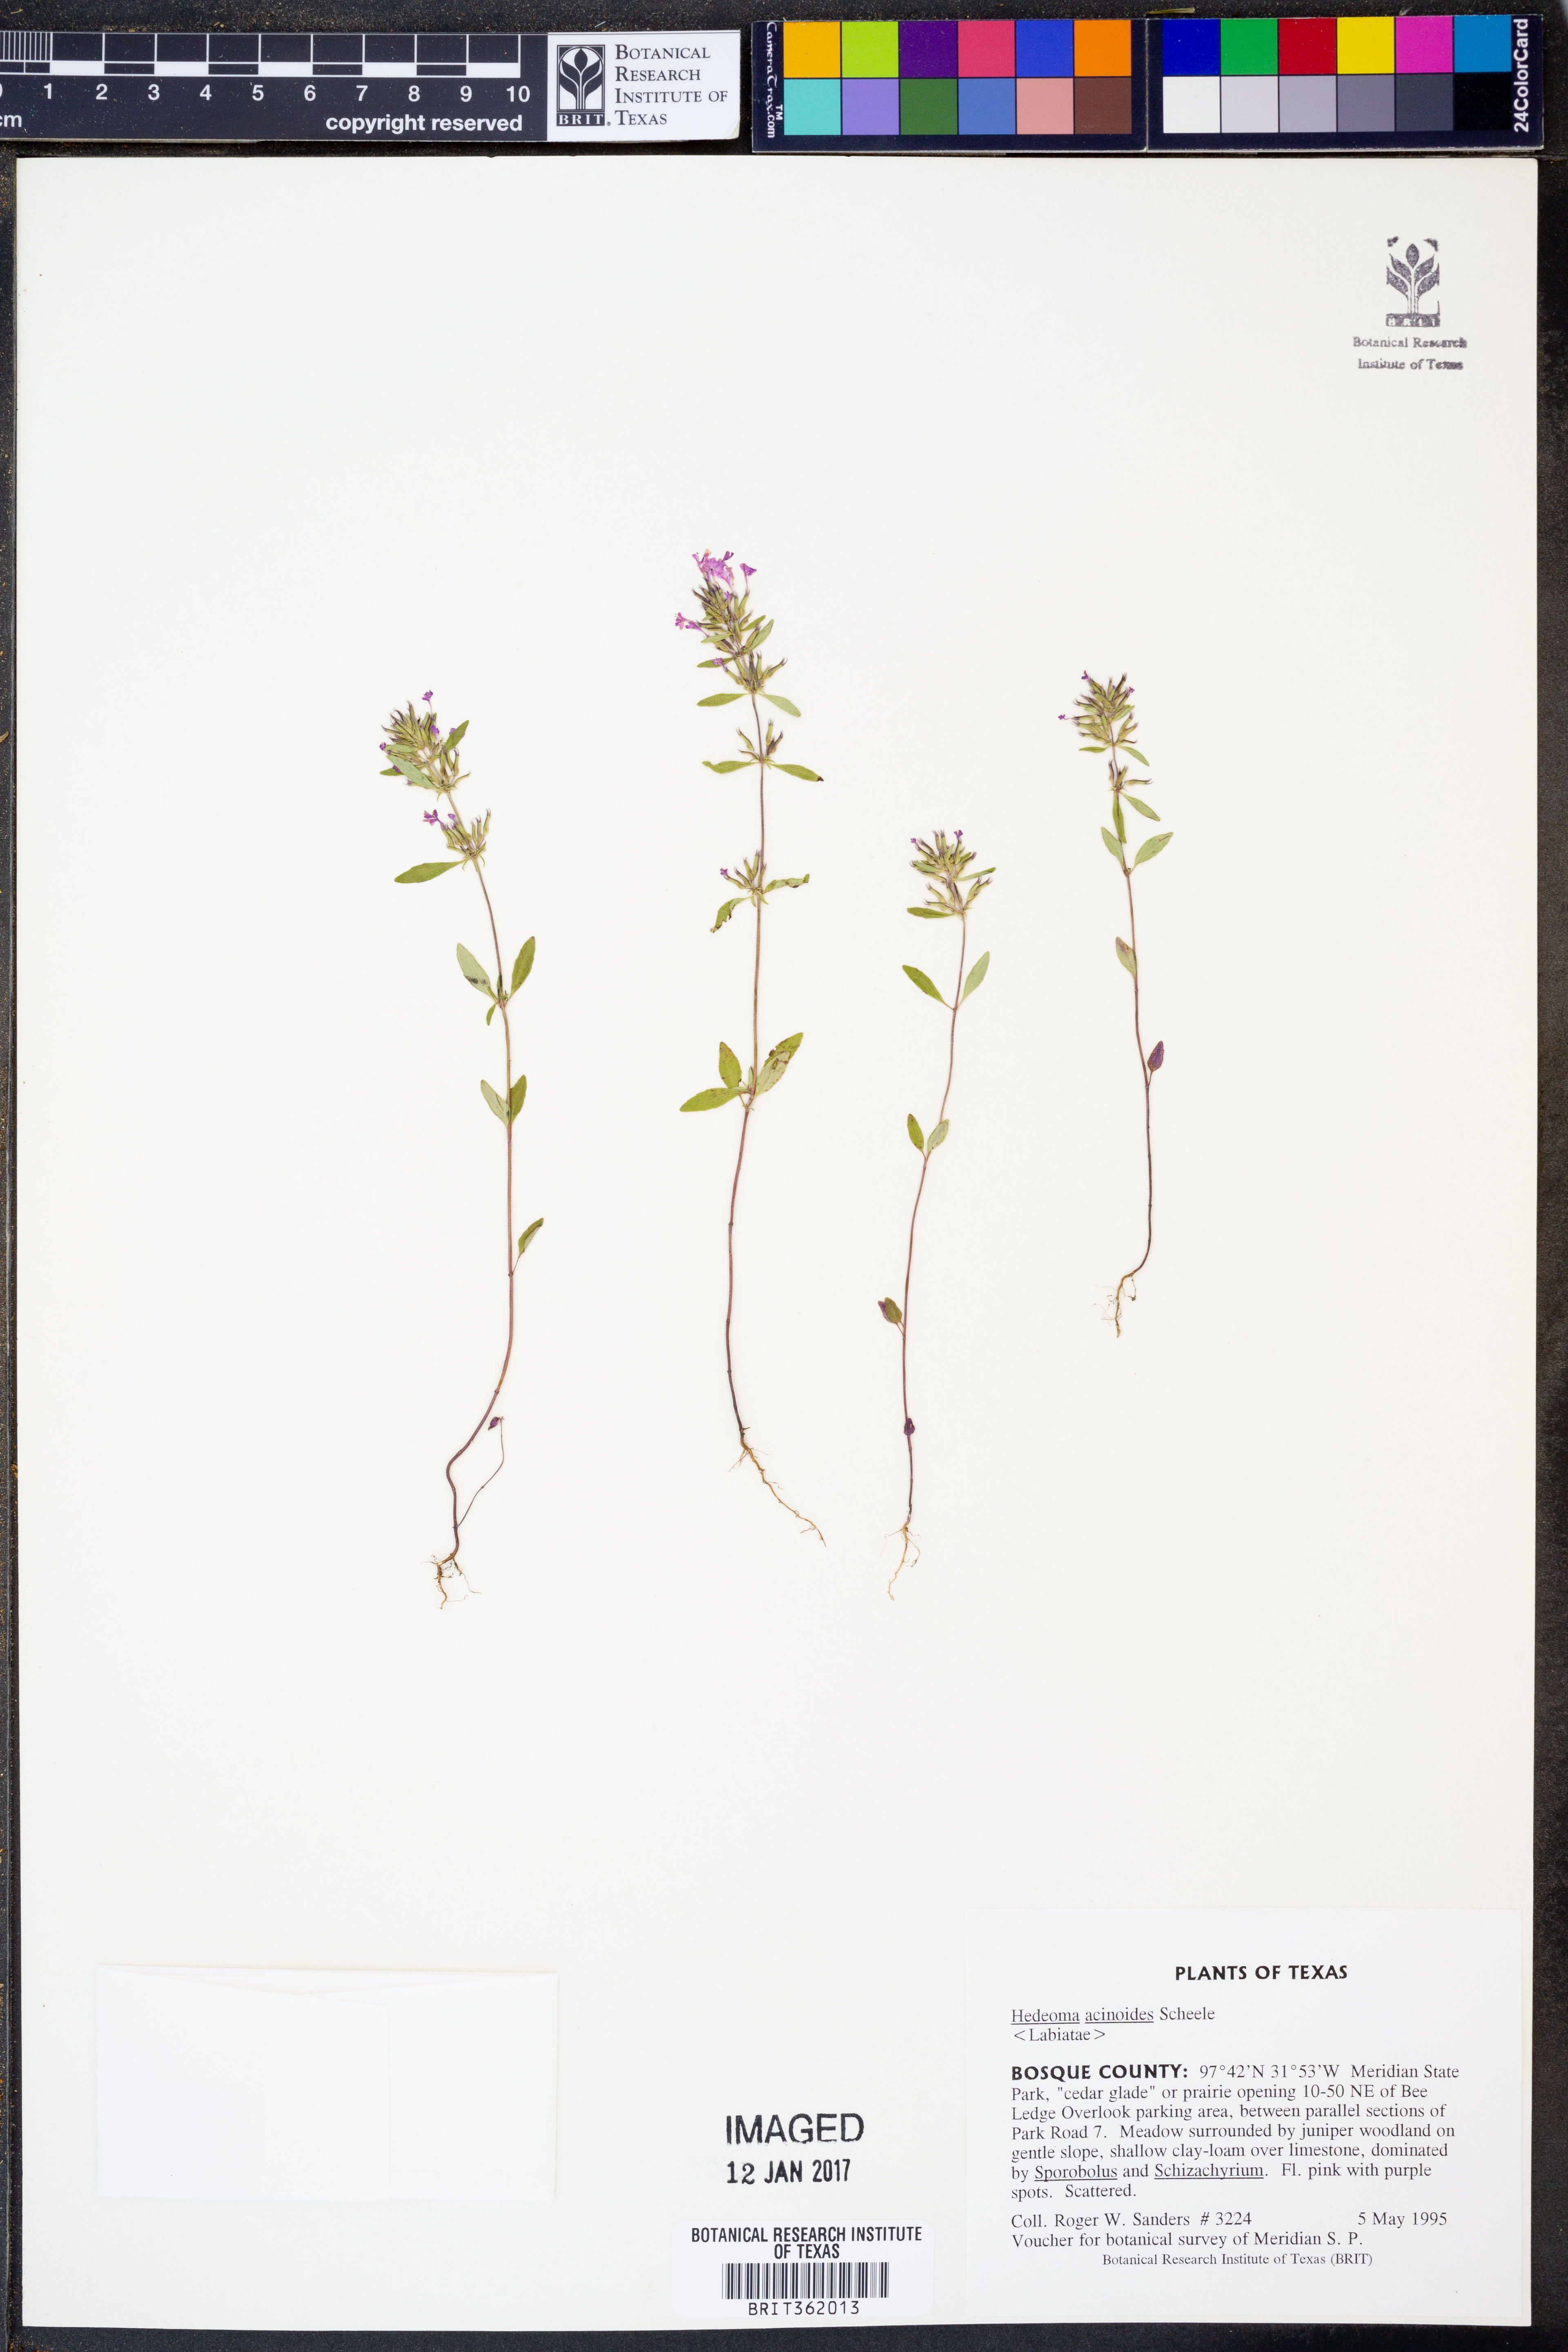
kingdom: Plantae
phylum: Tracheophyta
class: Magnoliopsida
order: Lamiales
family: Lamiaceae
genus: Hedeoma
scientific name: Hedeoma acinoides
